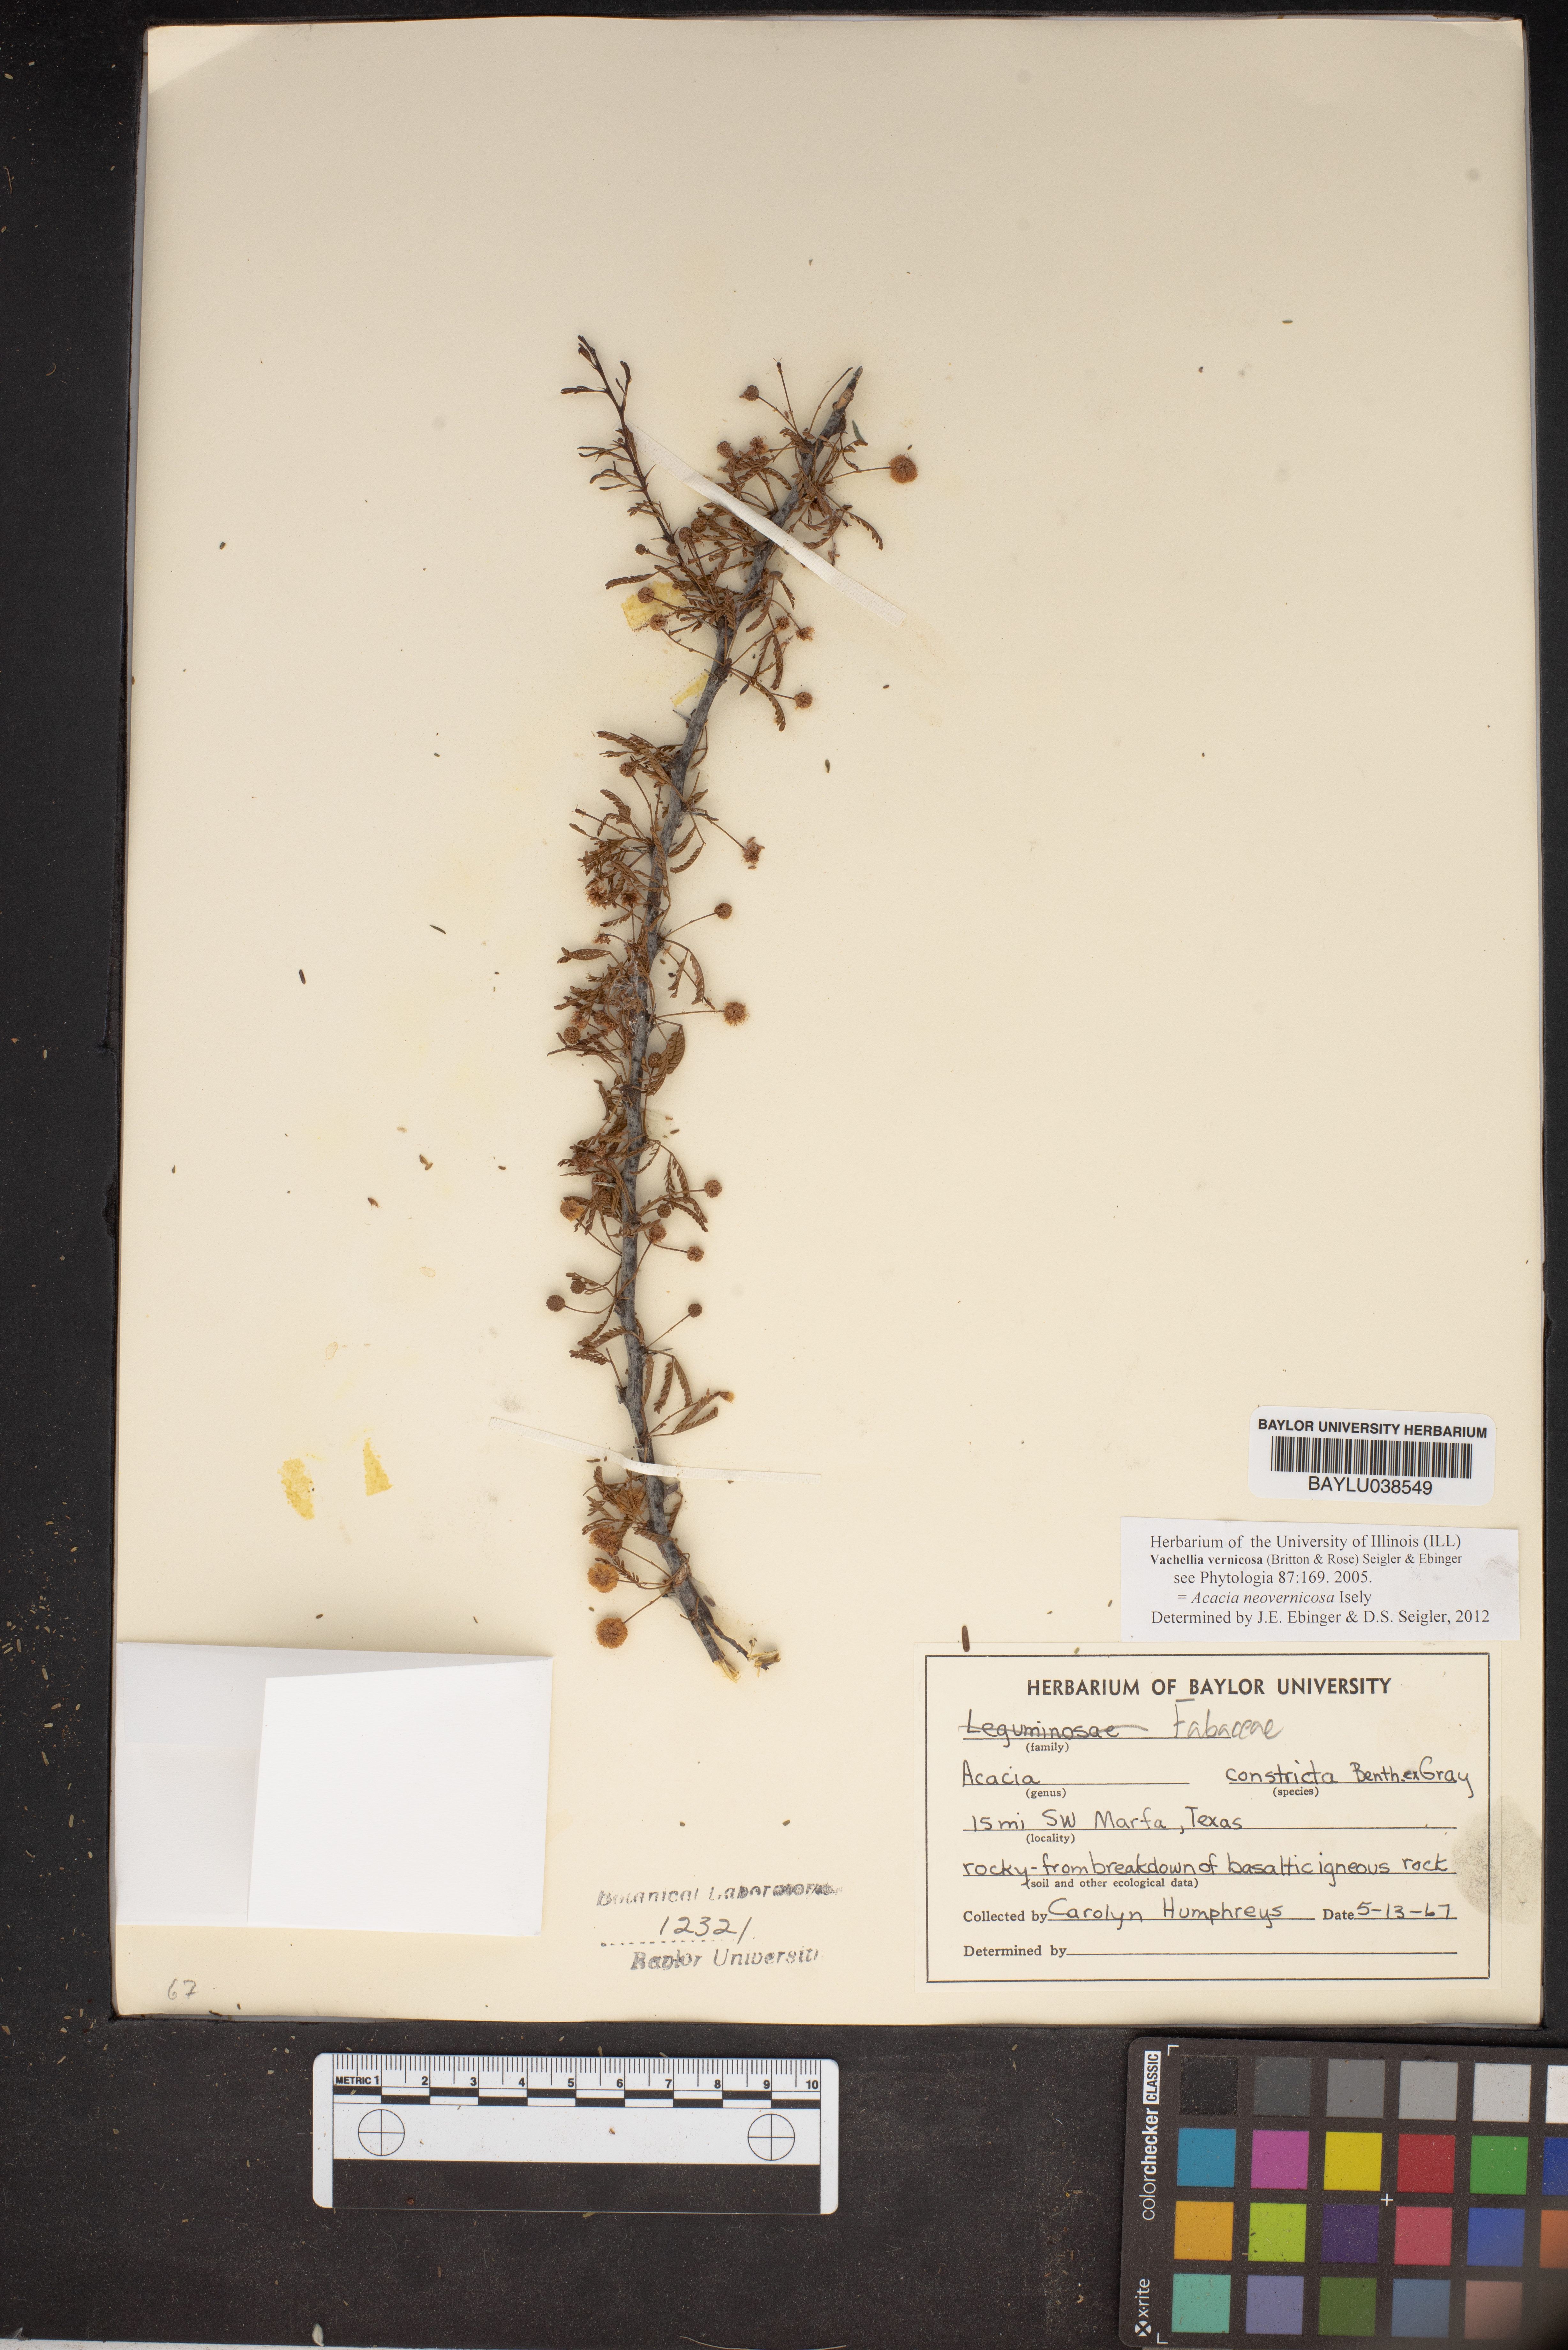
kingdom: Plantae
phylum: Tracheophyta
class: Magnoliopsida
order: Fabales
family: Fabaceae
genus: Vachellia
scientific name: Vachellia constricta
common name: Mescat acacia
